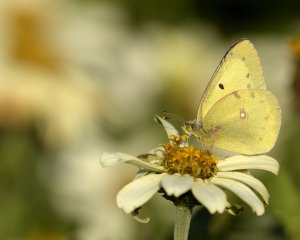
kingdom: Animalia
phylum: Arthropoda
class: Insecta
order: Lepidoptera
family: Pieridae
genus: Colias
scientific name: Colias philodice
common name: Clouded Sulphur
